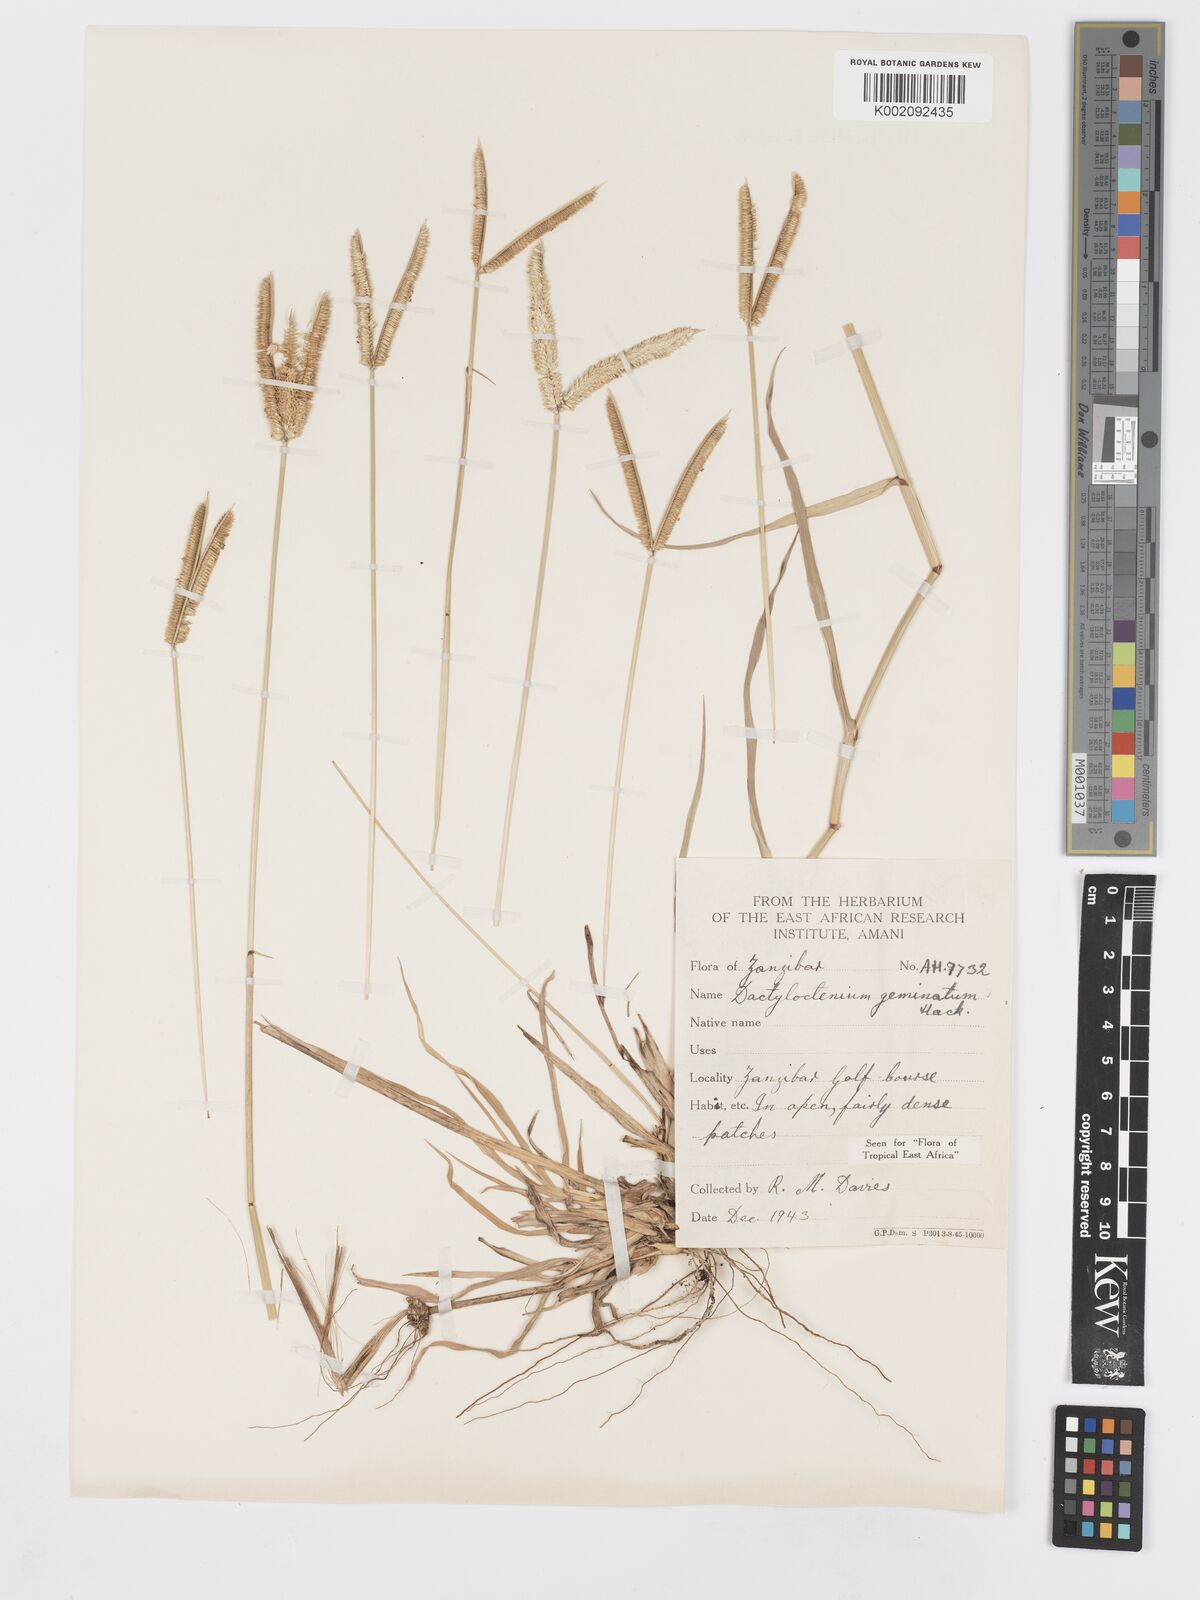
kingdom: Plantae
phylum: Tracheophyta
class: Liliopsida
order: Poales
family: Poaceae
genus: Dactyloctenium
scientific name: Dactyloctenium geminatum
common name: Crowsfoot grass
